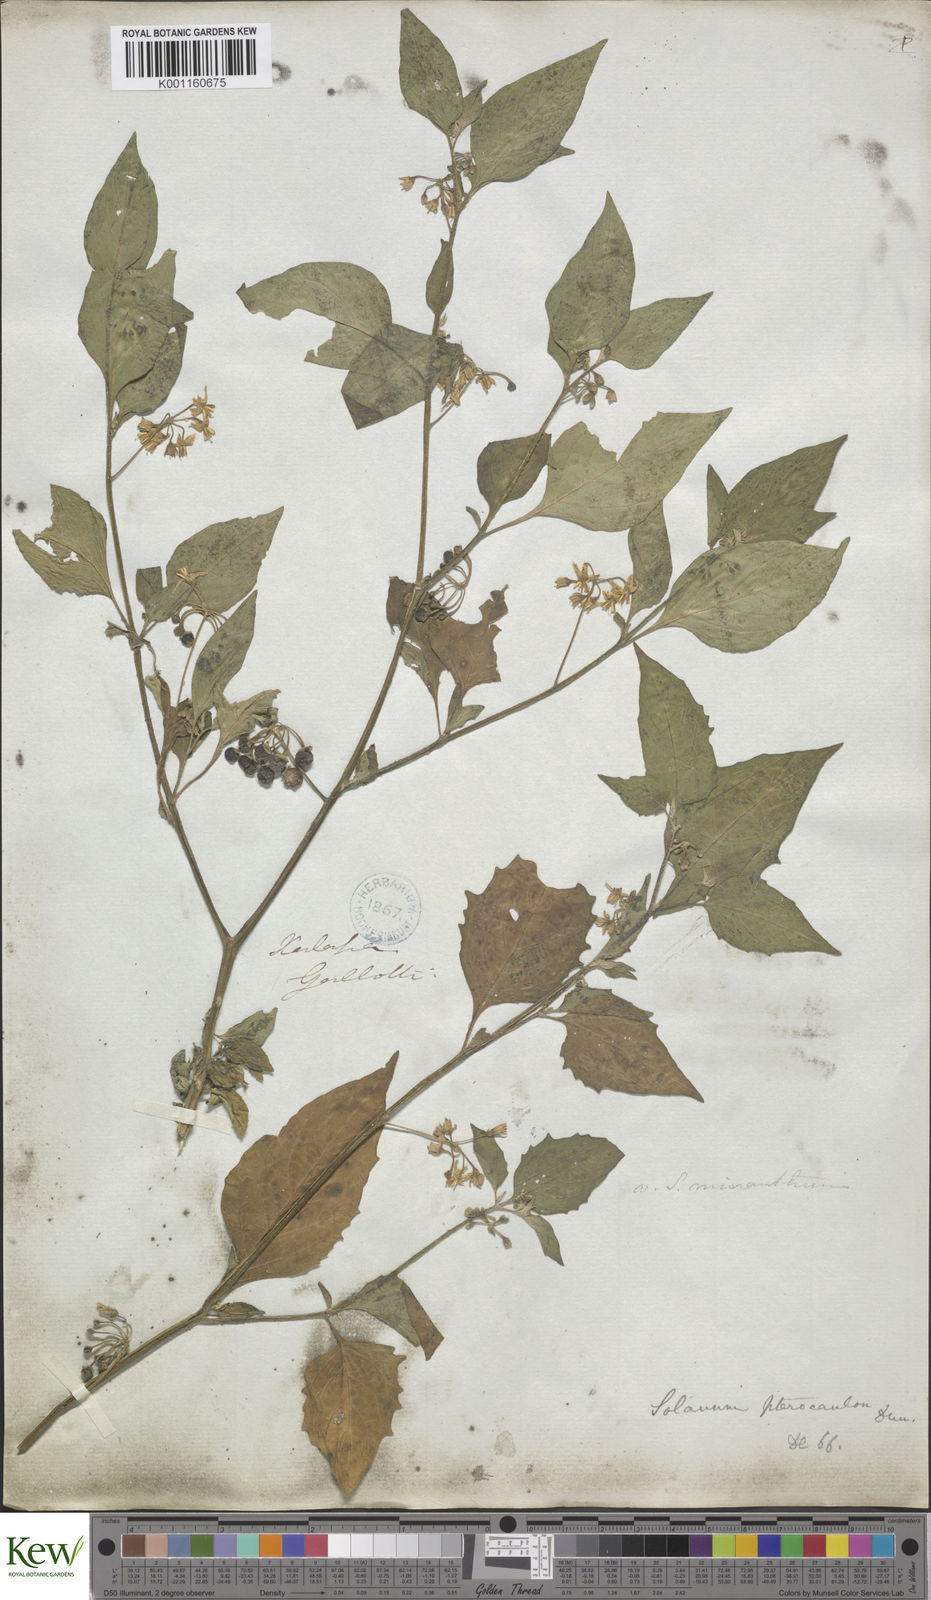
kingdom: Plantae
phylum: Tracheophyta
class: Magnoliopsida
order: Solanales
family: Solanaceae
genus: Solanum
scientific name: Solanum
